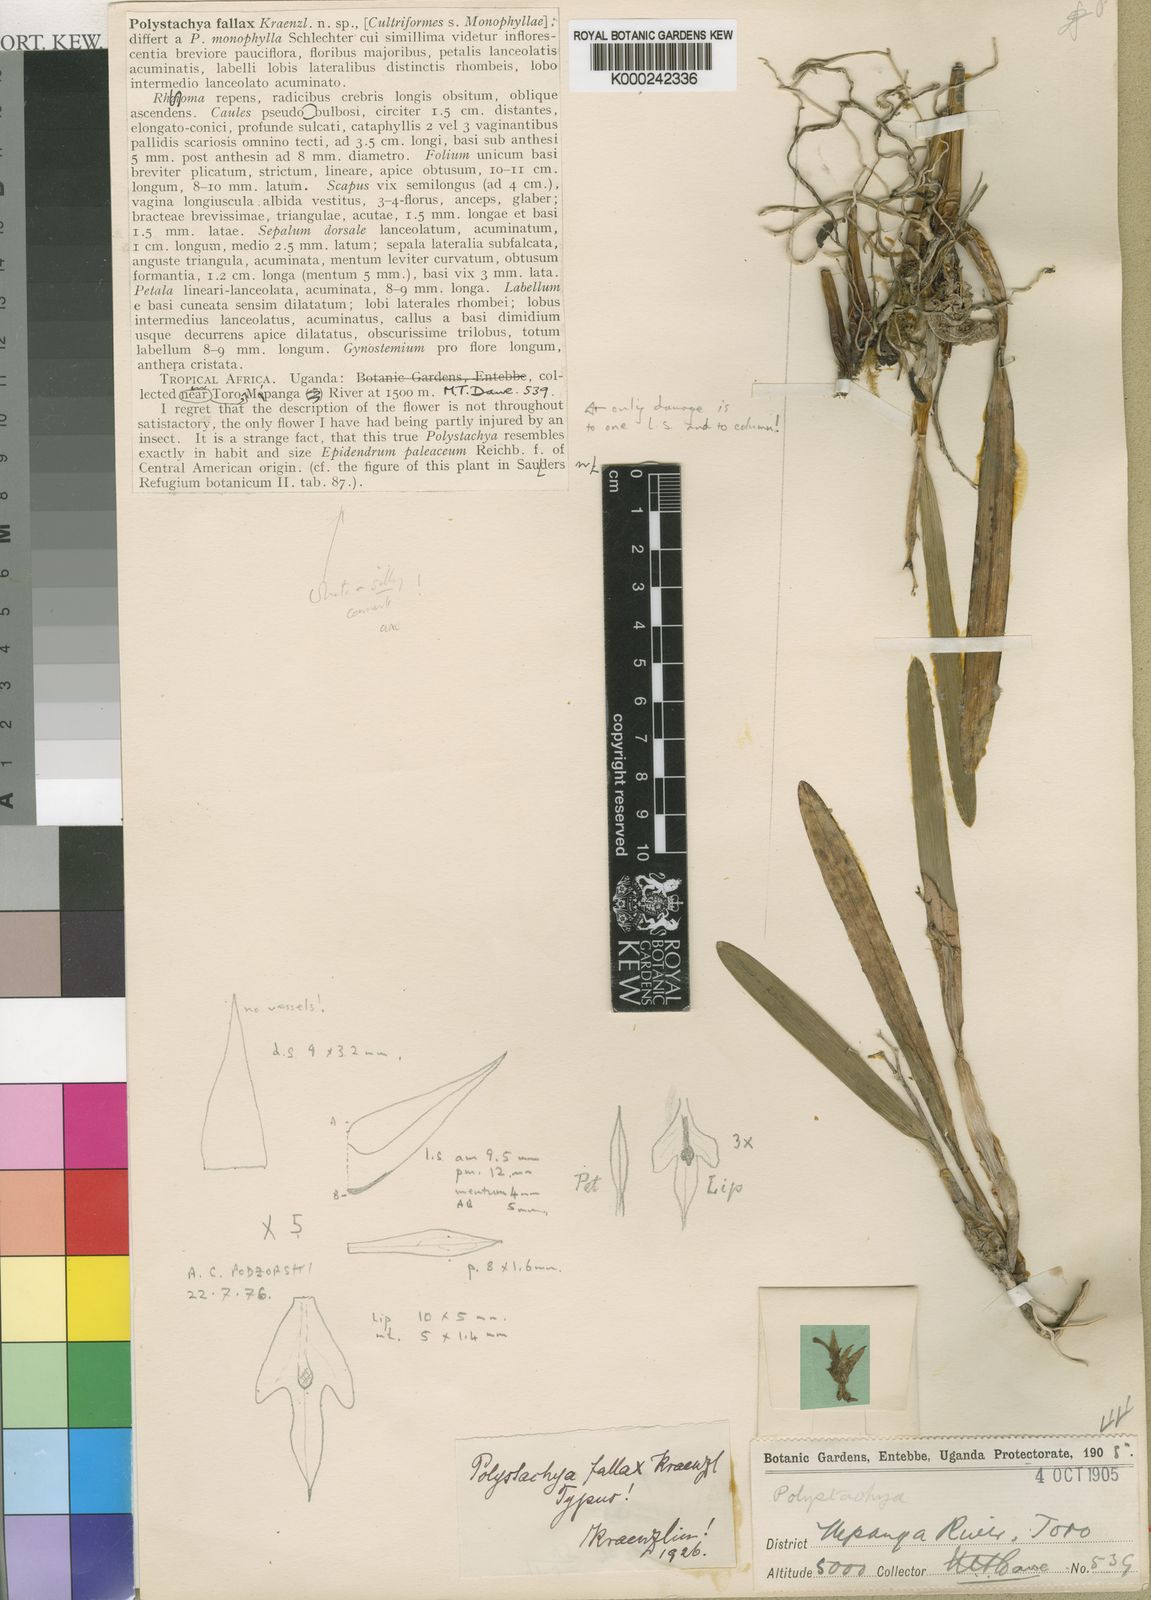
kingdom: Plantae
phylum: Tracheophyta
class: Liliopsida
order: Asparagales
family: Orchidaceae
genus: Polystachya
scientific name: Polystachya fallax
